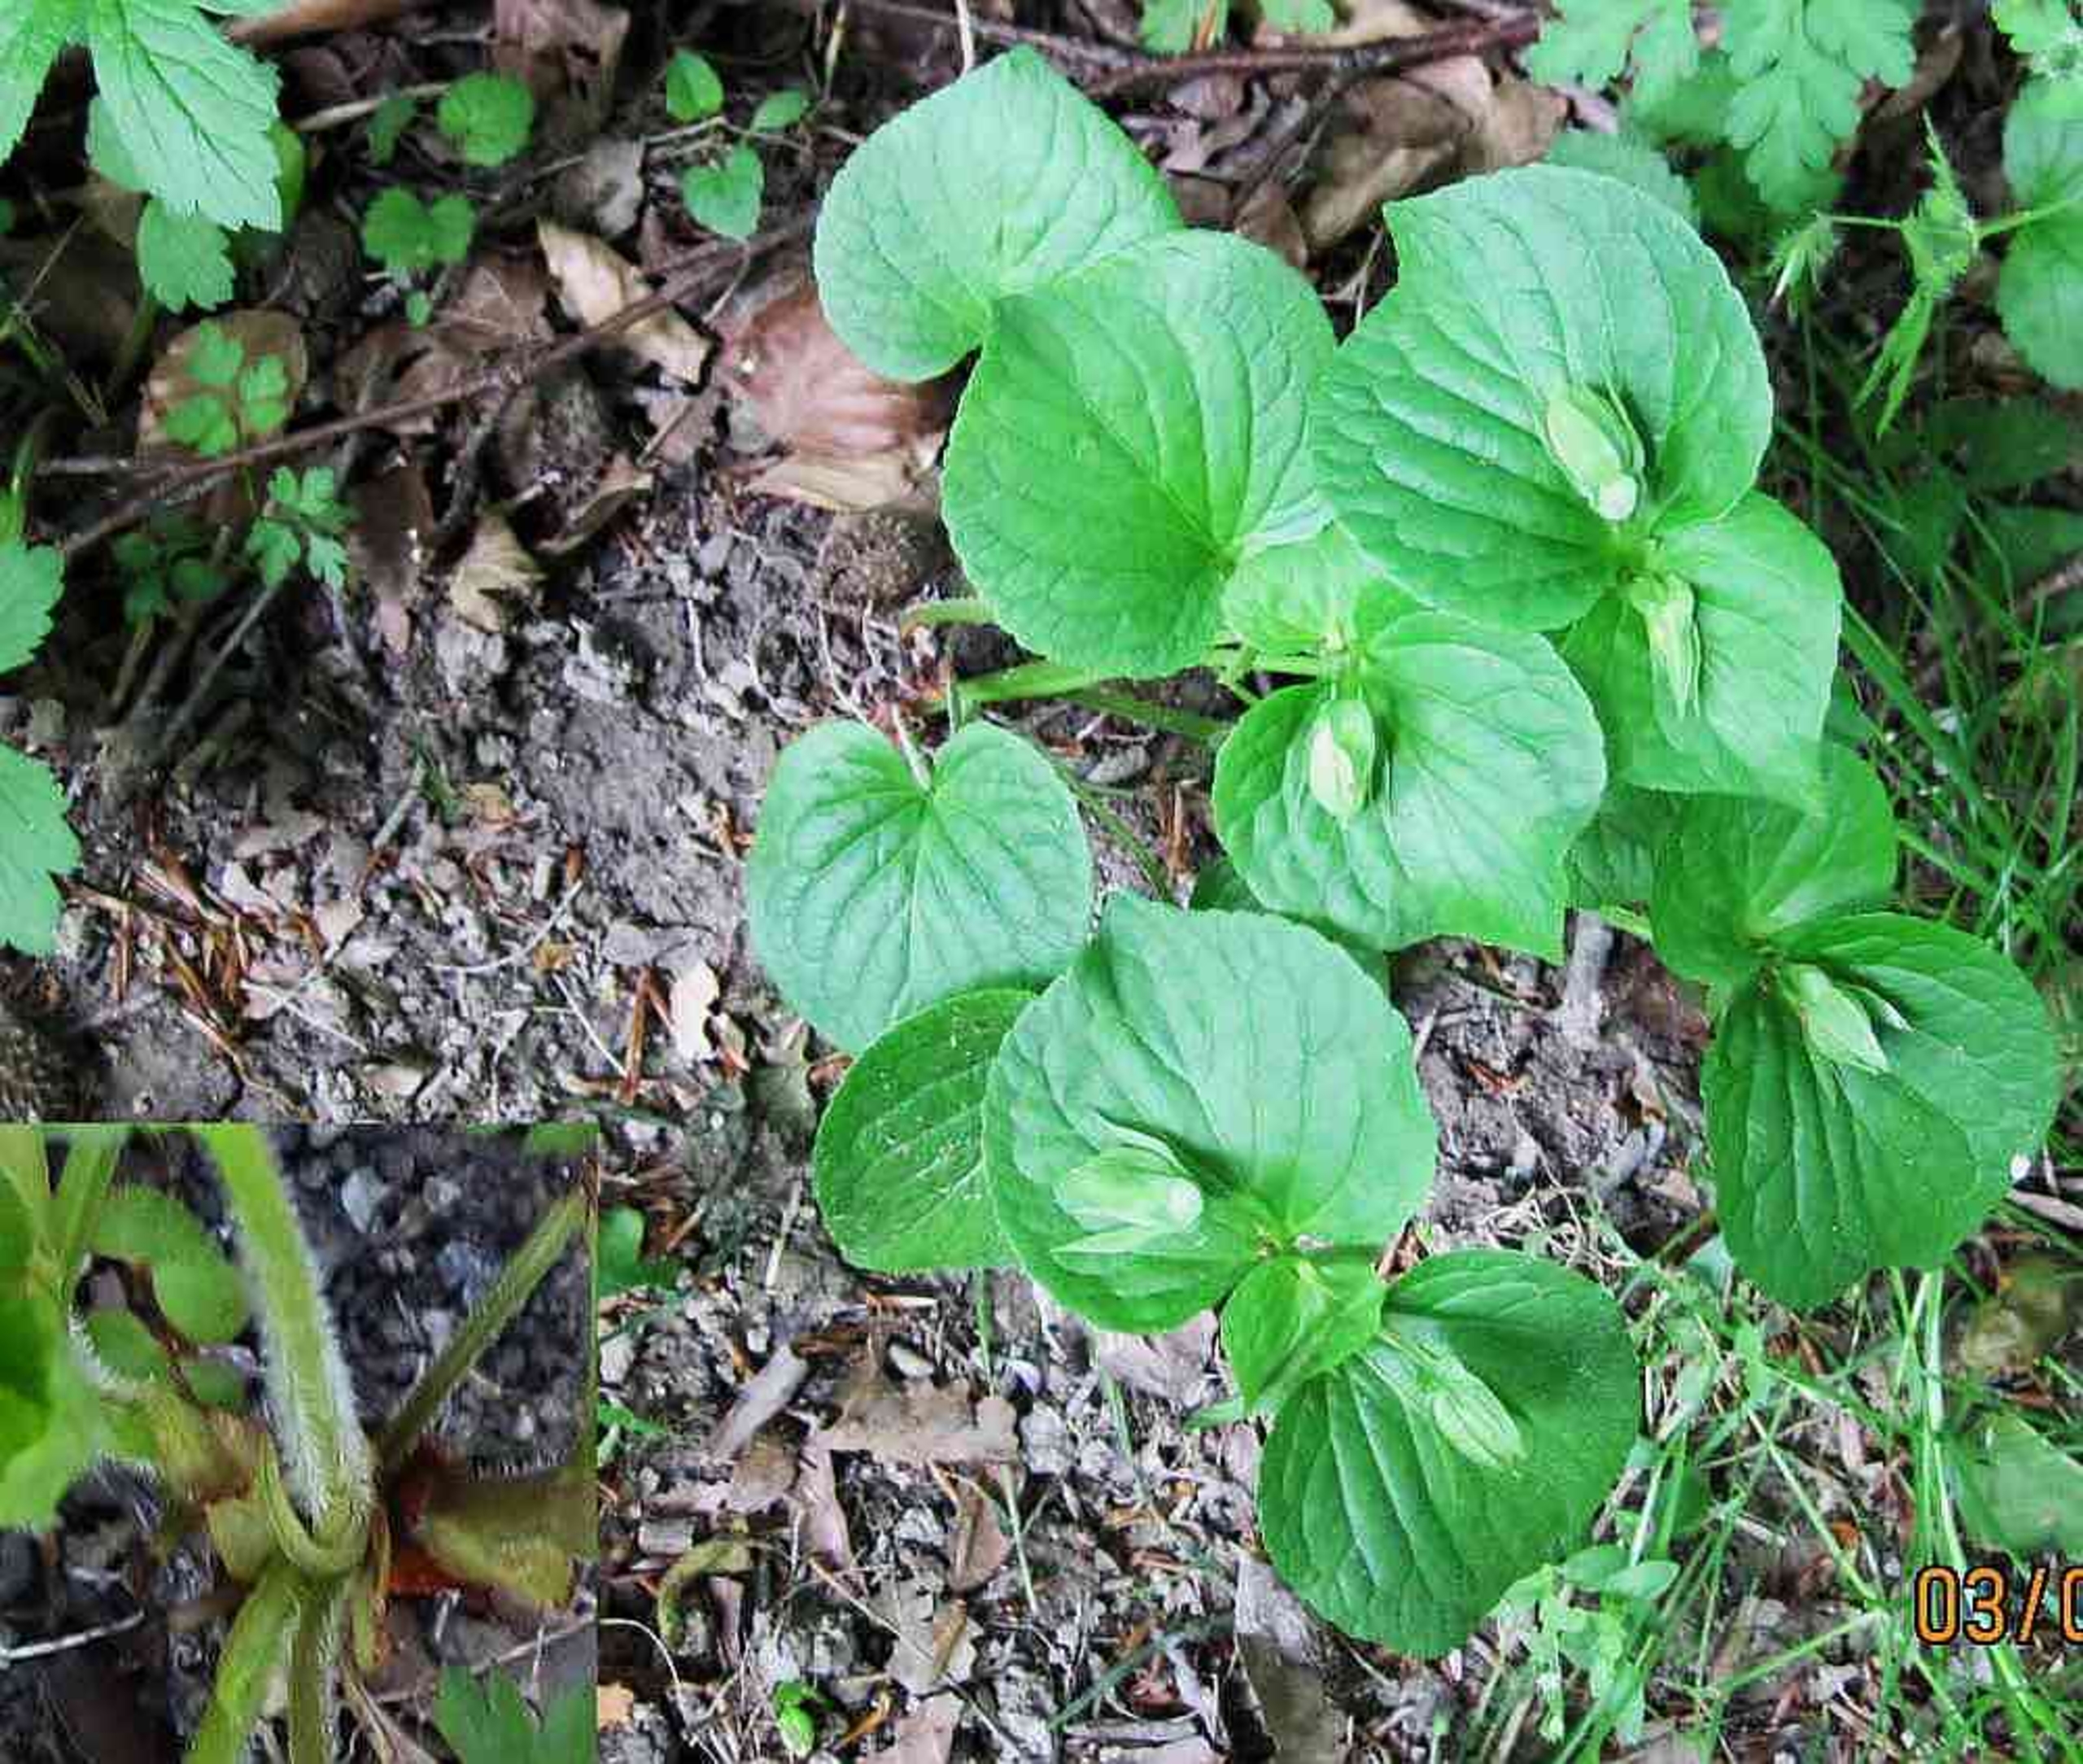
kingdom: Plantae
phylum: Tracheophyta
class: Magnoliopsida
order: Malpighiales
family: Violaceae
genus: Viola
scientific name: Viola mirabilis
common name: Forskelligblomstret viol
